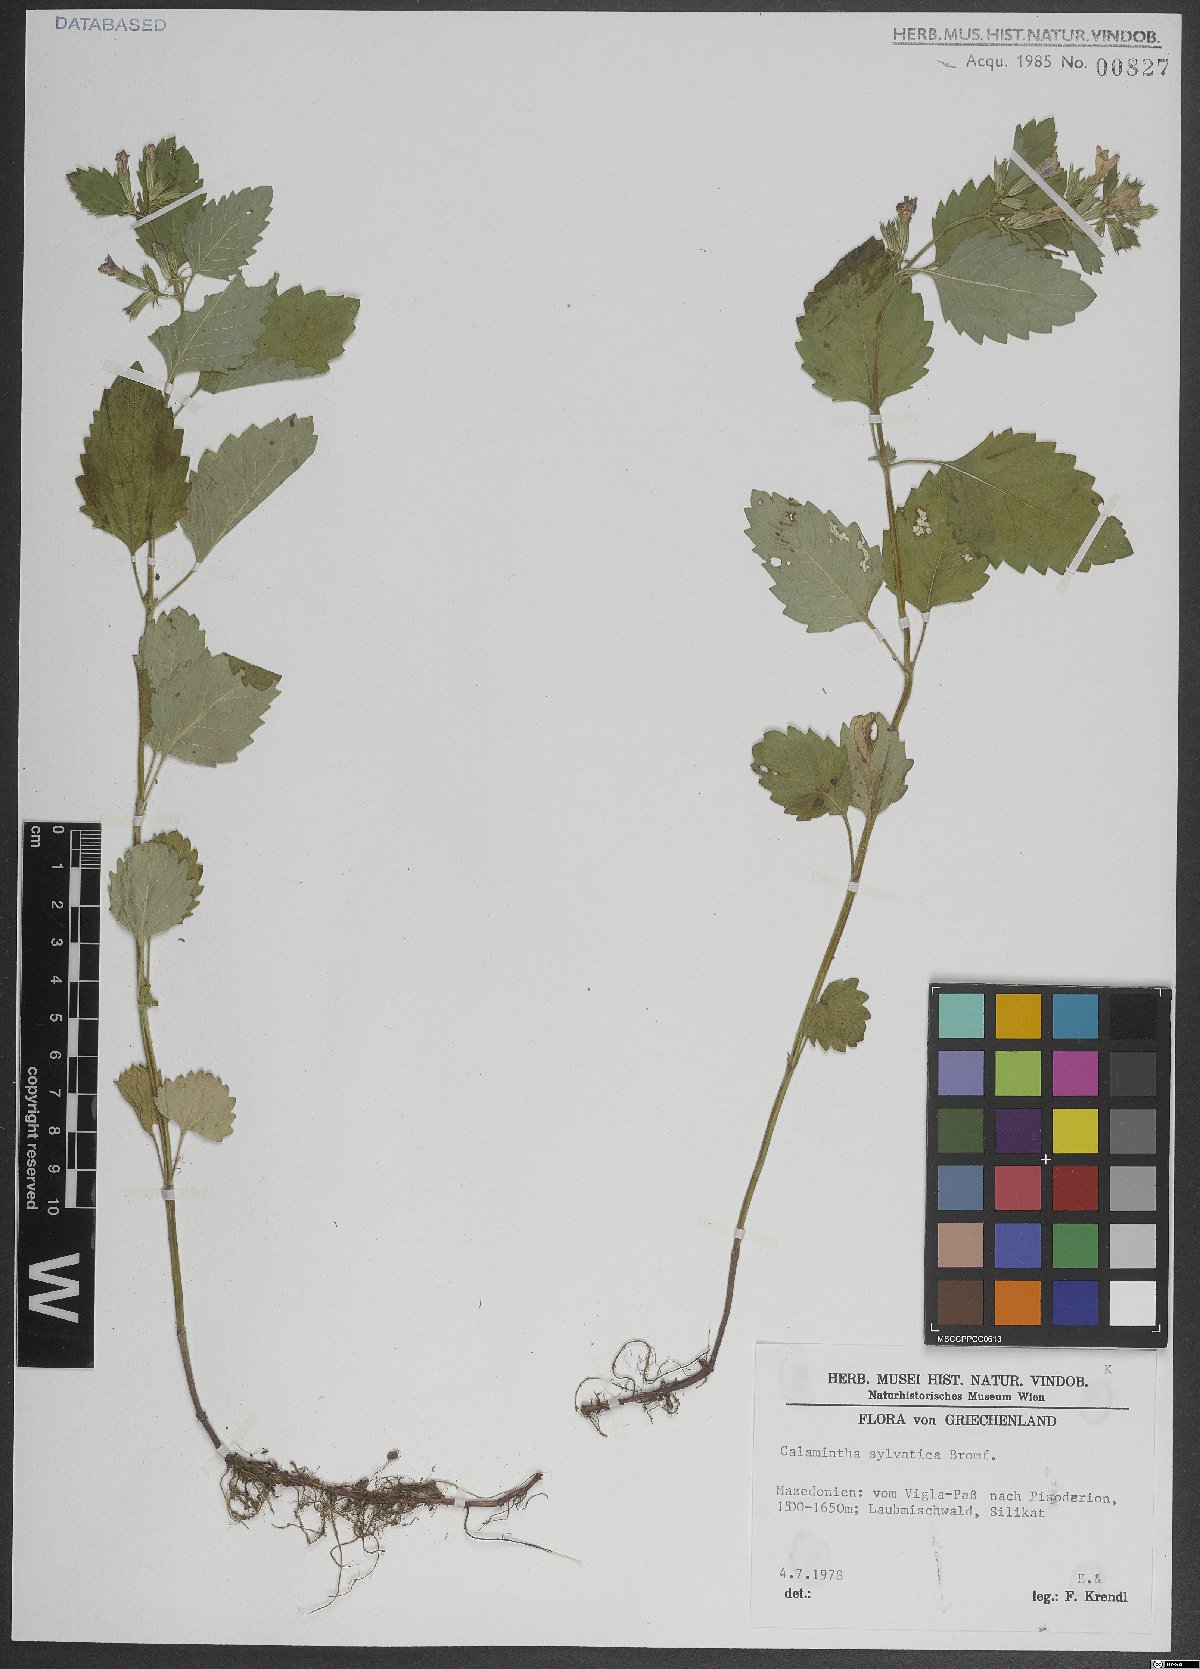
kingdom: Plantae
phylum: Tracheophyta
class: Magnoliopsida
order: Lamiales
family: Lamiaceae
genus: Clinopodium
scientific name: Clinopodium menthifolium
